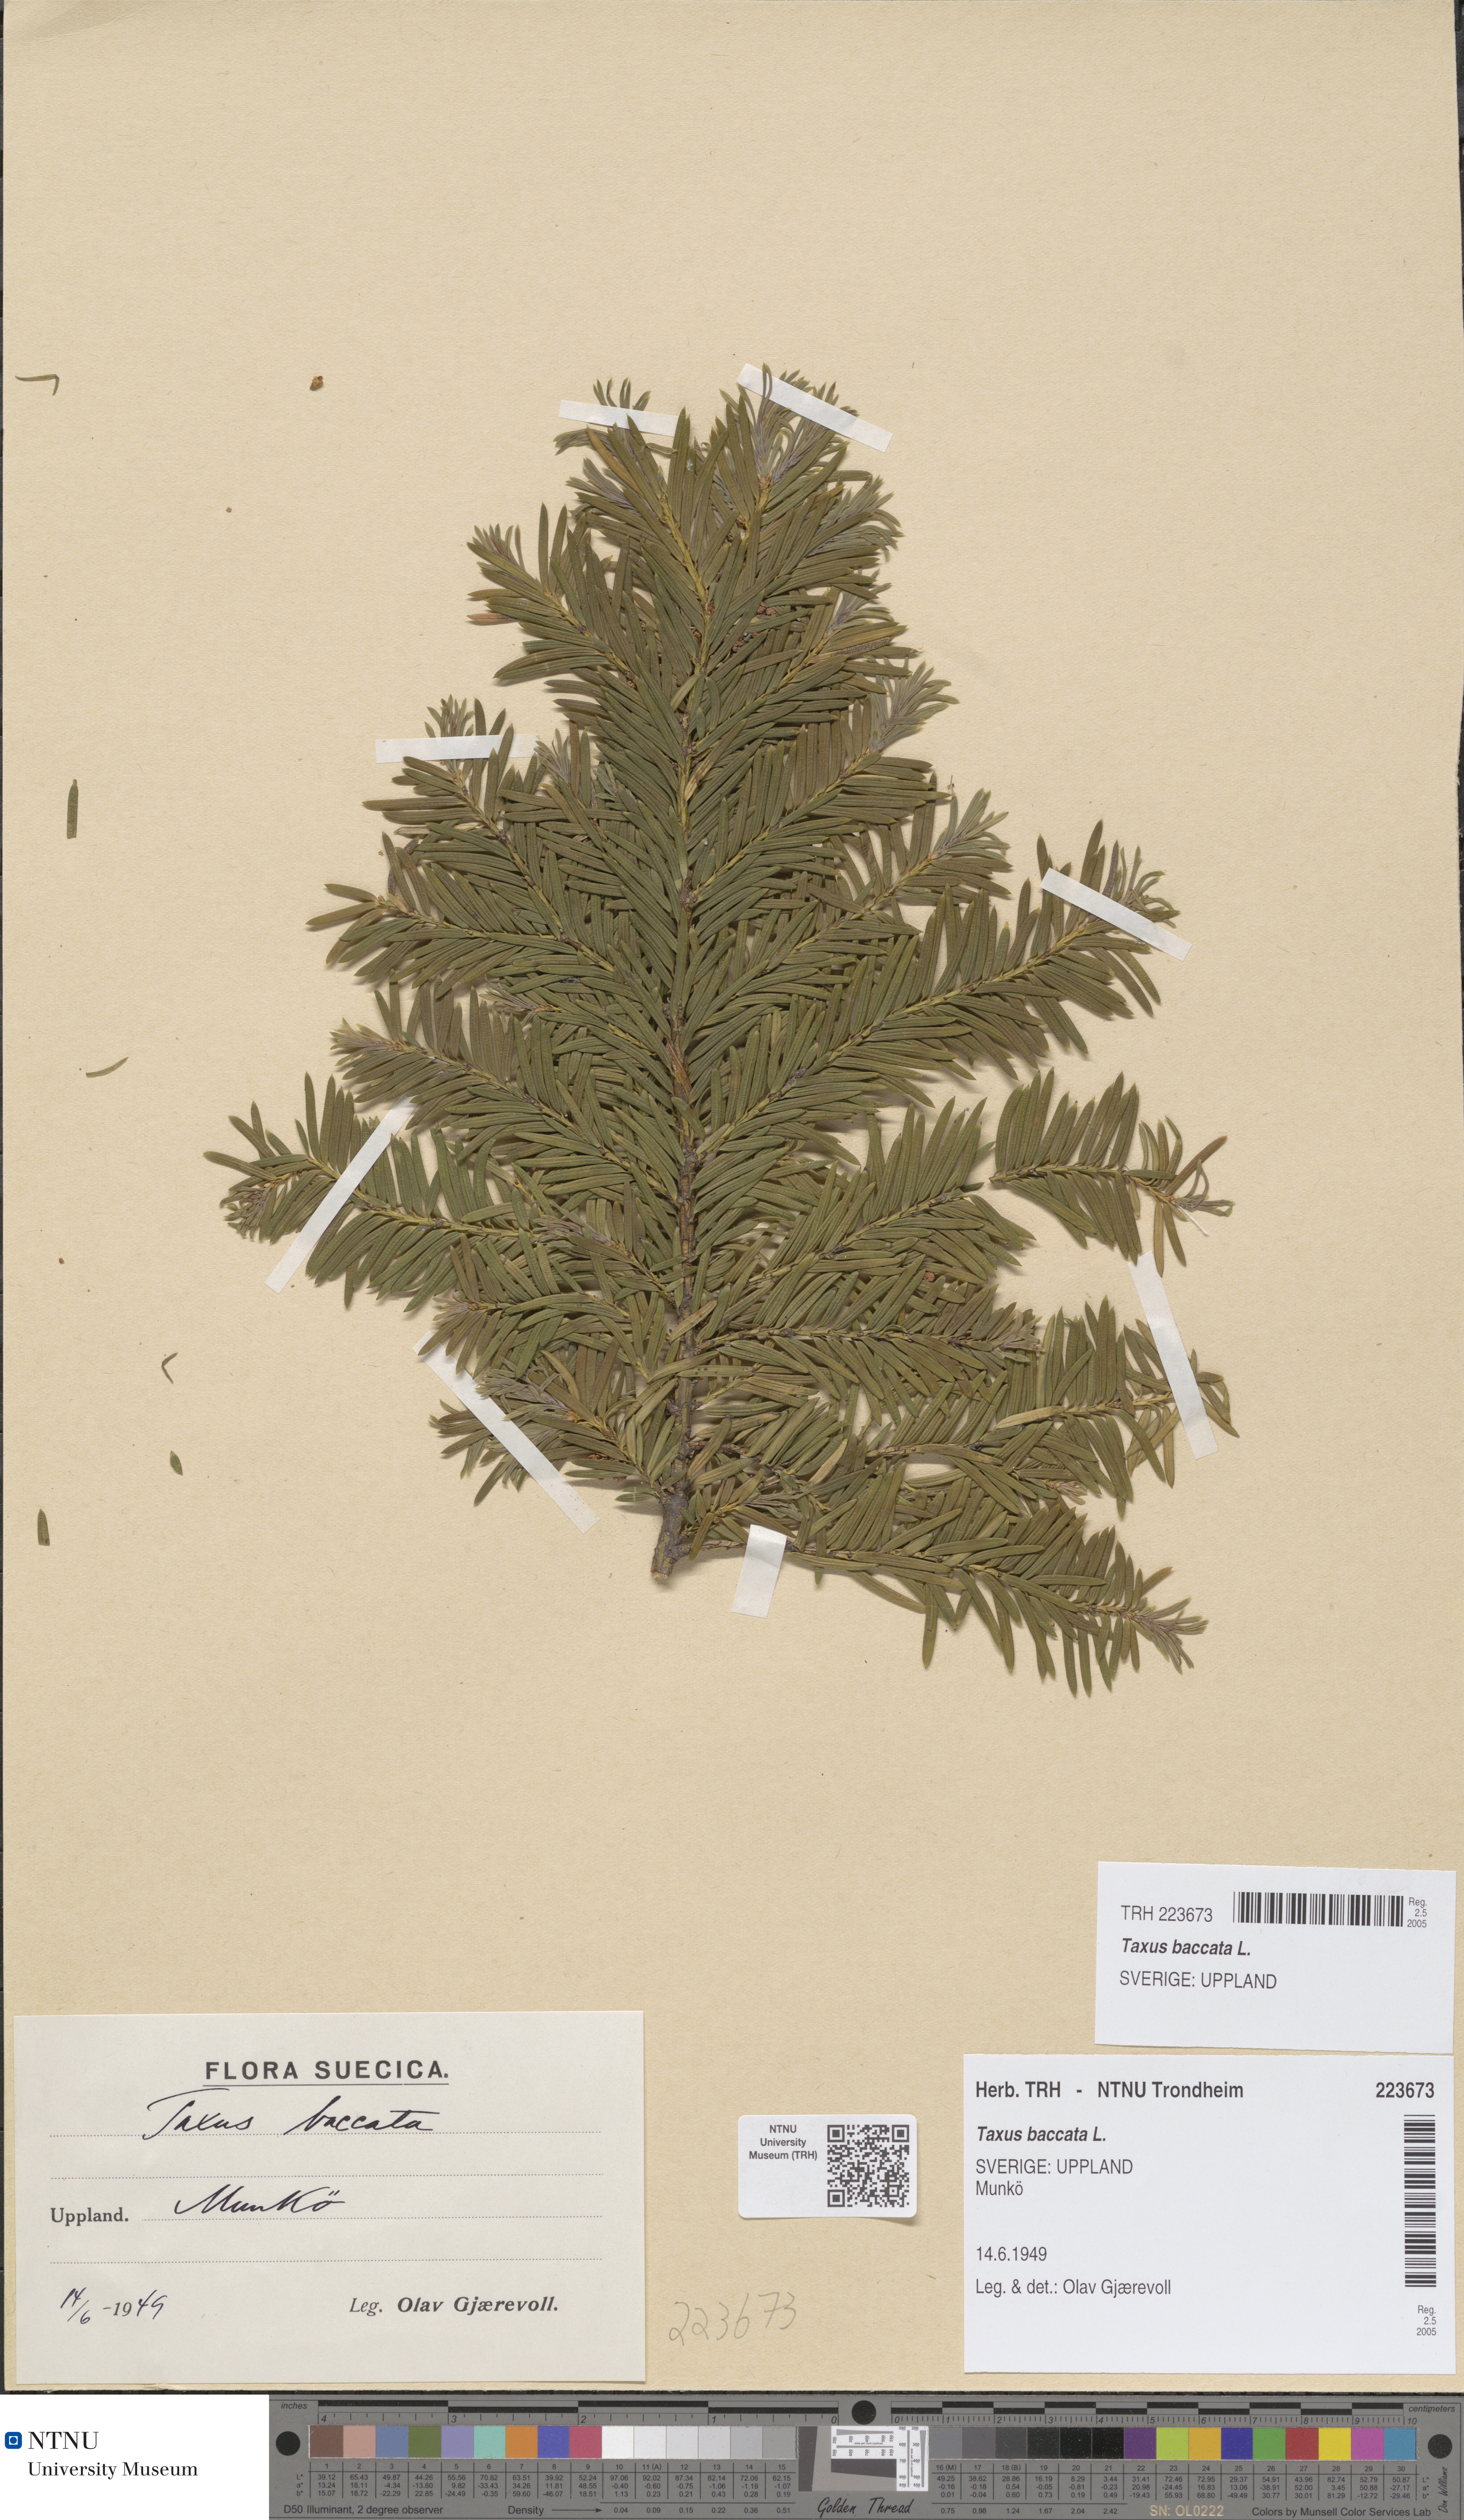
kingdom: Plantae
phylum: Tracheophyta
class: Pinopsida
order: Pinales
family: Taxaceae
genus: Taxus
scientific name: Taxus baccata
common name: Yew
